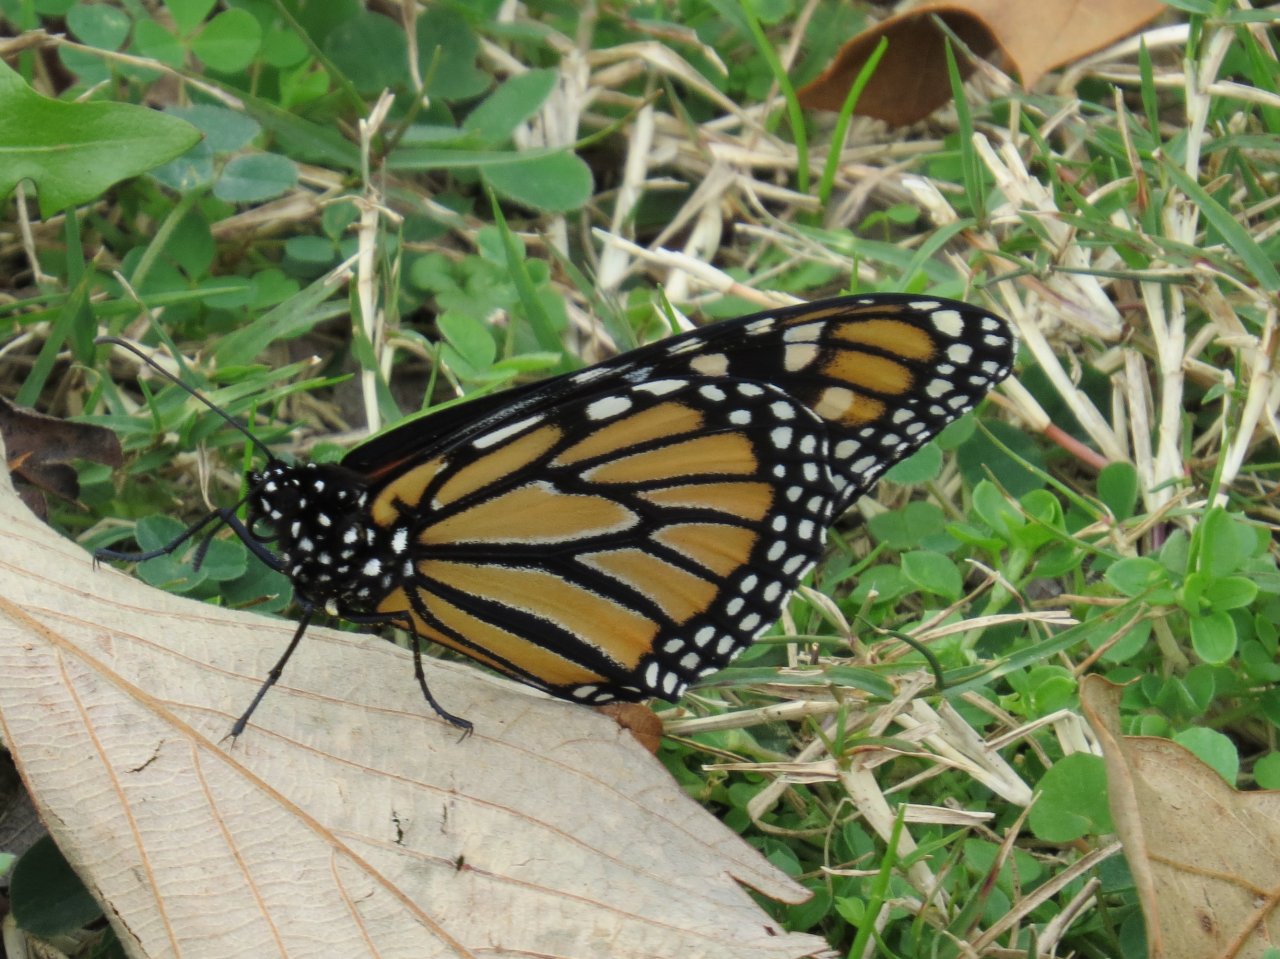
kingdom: Animalia
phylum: Arthropoda
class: Insecta
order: Lepidoptera
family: Nymphalidae
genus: Danaus
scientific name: Danaus plexippus
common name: Monarch
